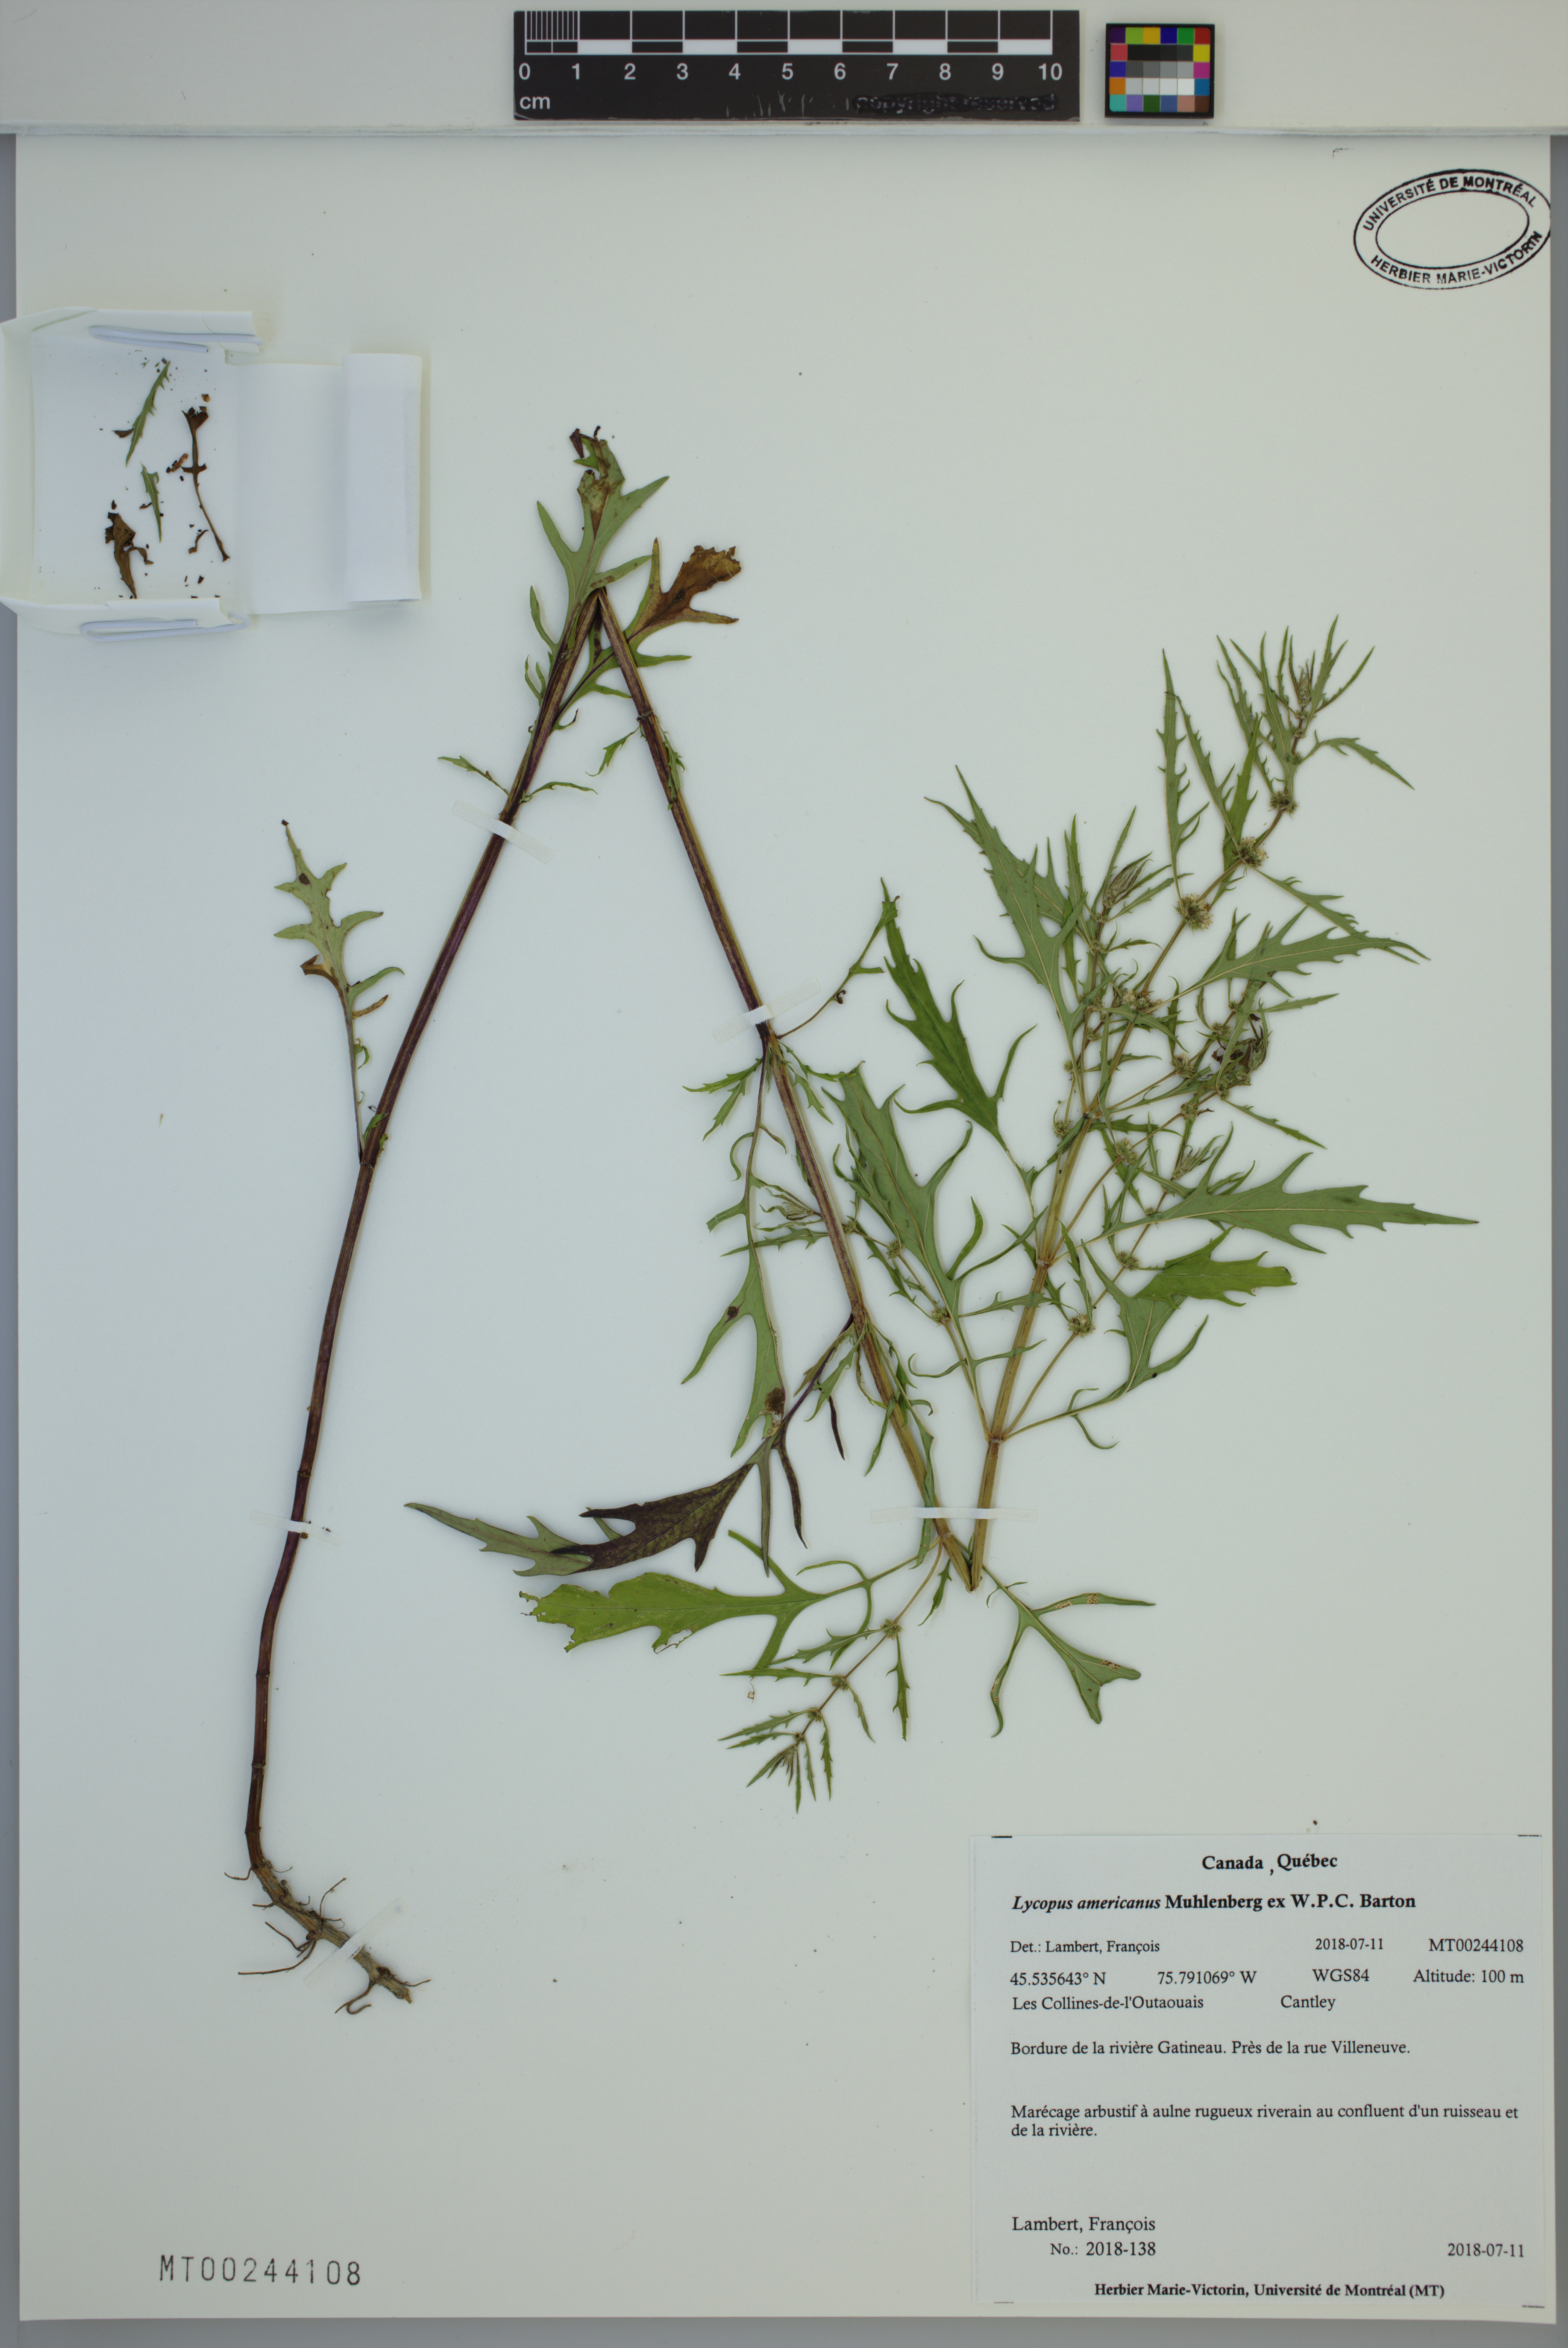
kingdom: Plantae
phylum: Tracheophyta
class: Magnoliopsida
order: Lamiales
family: Lamiaceae
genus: Lycopus
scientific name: Lycopus americanus
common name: American bugleweed
